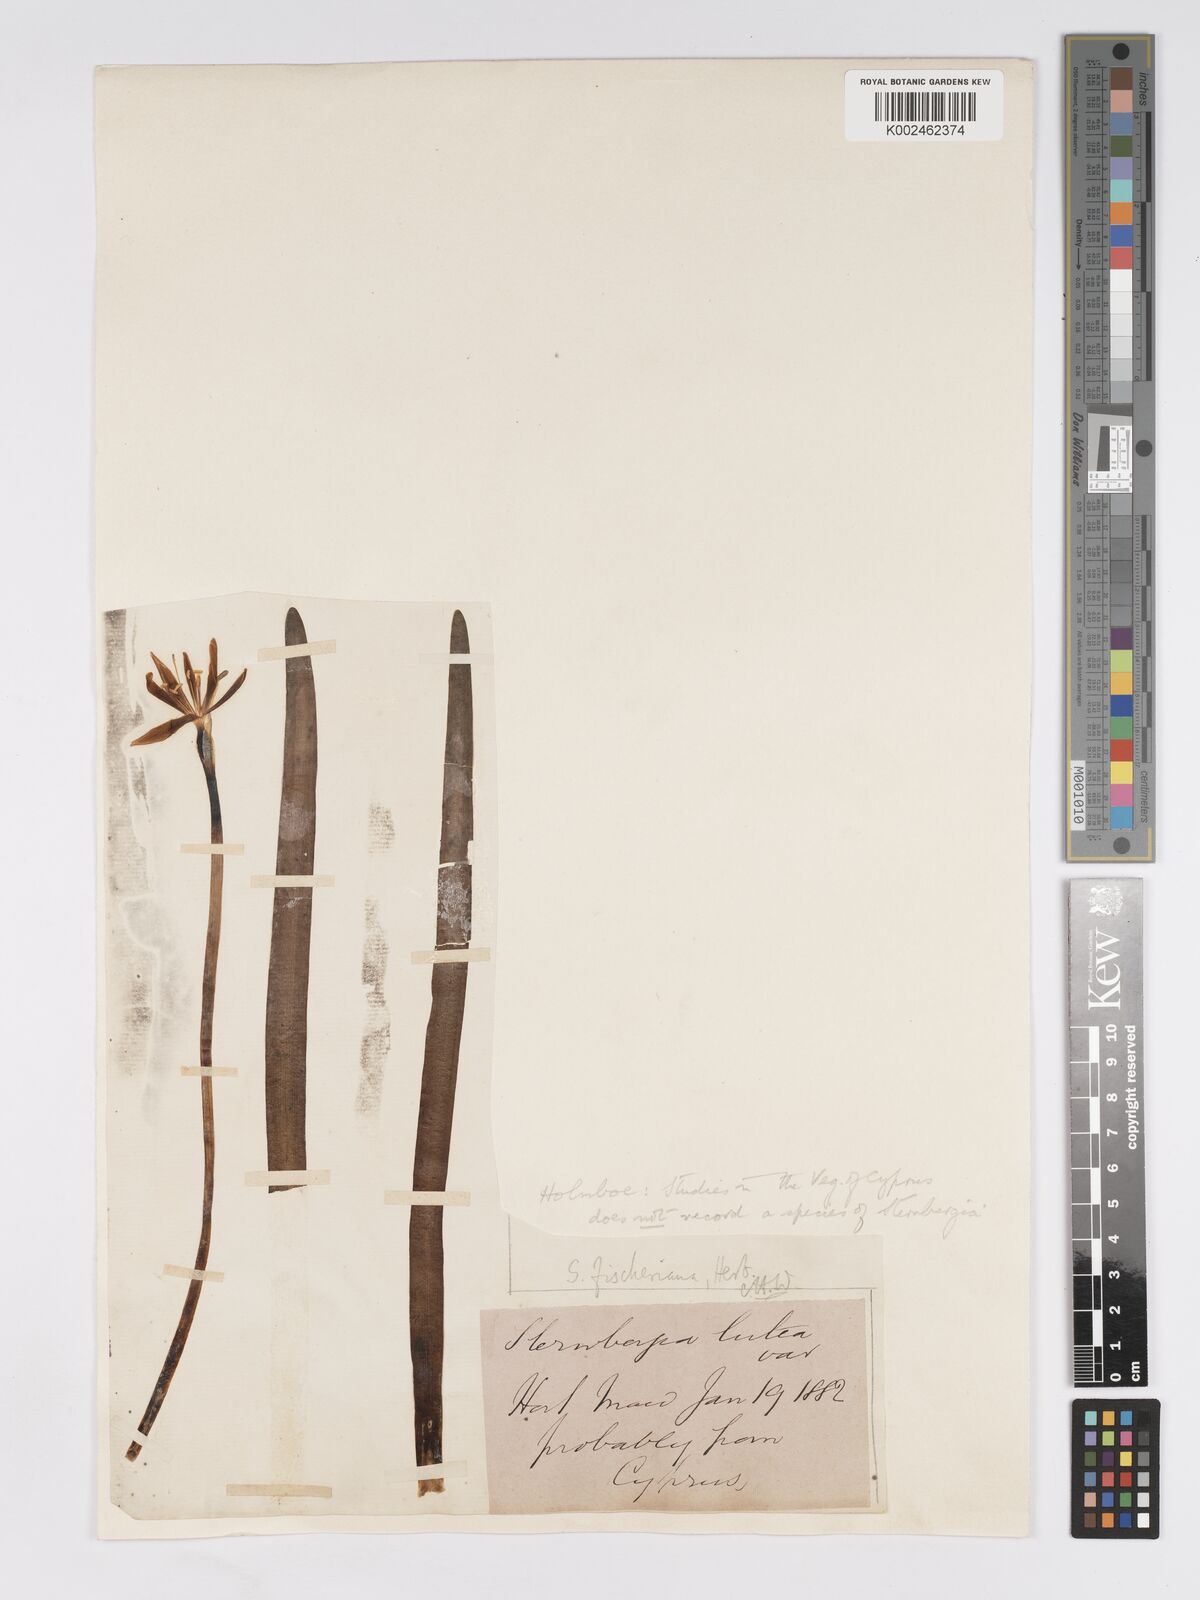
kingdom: Plantae
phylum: Tracheophyta
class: Liliopsida
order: Asparagales
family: Amaryllidaceae
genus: Sternbergia
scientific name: Sternbergia vernalis
